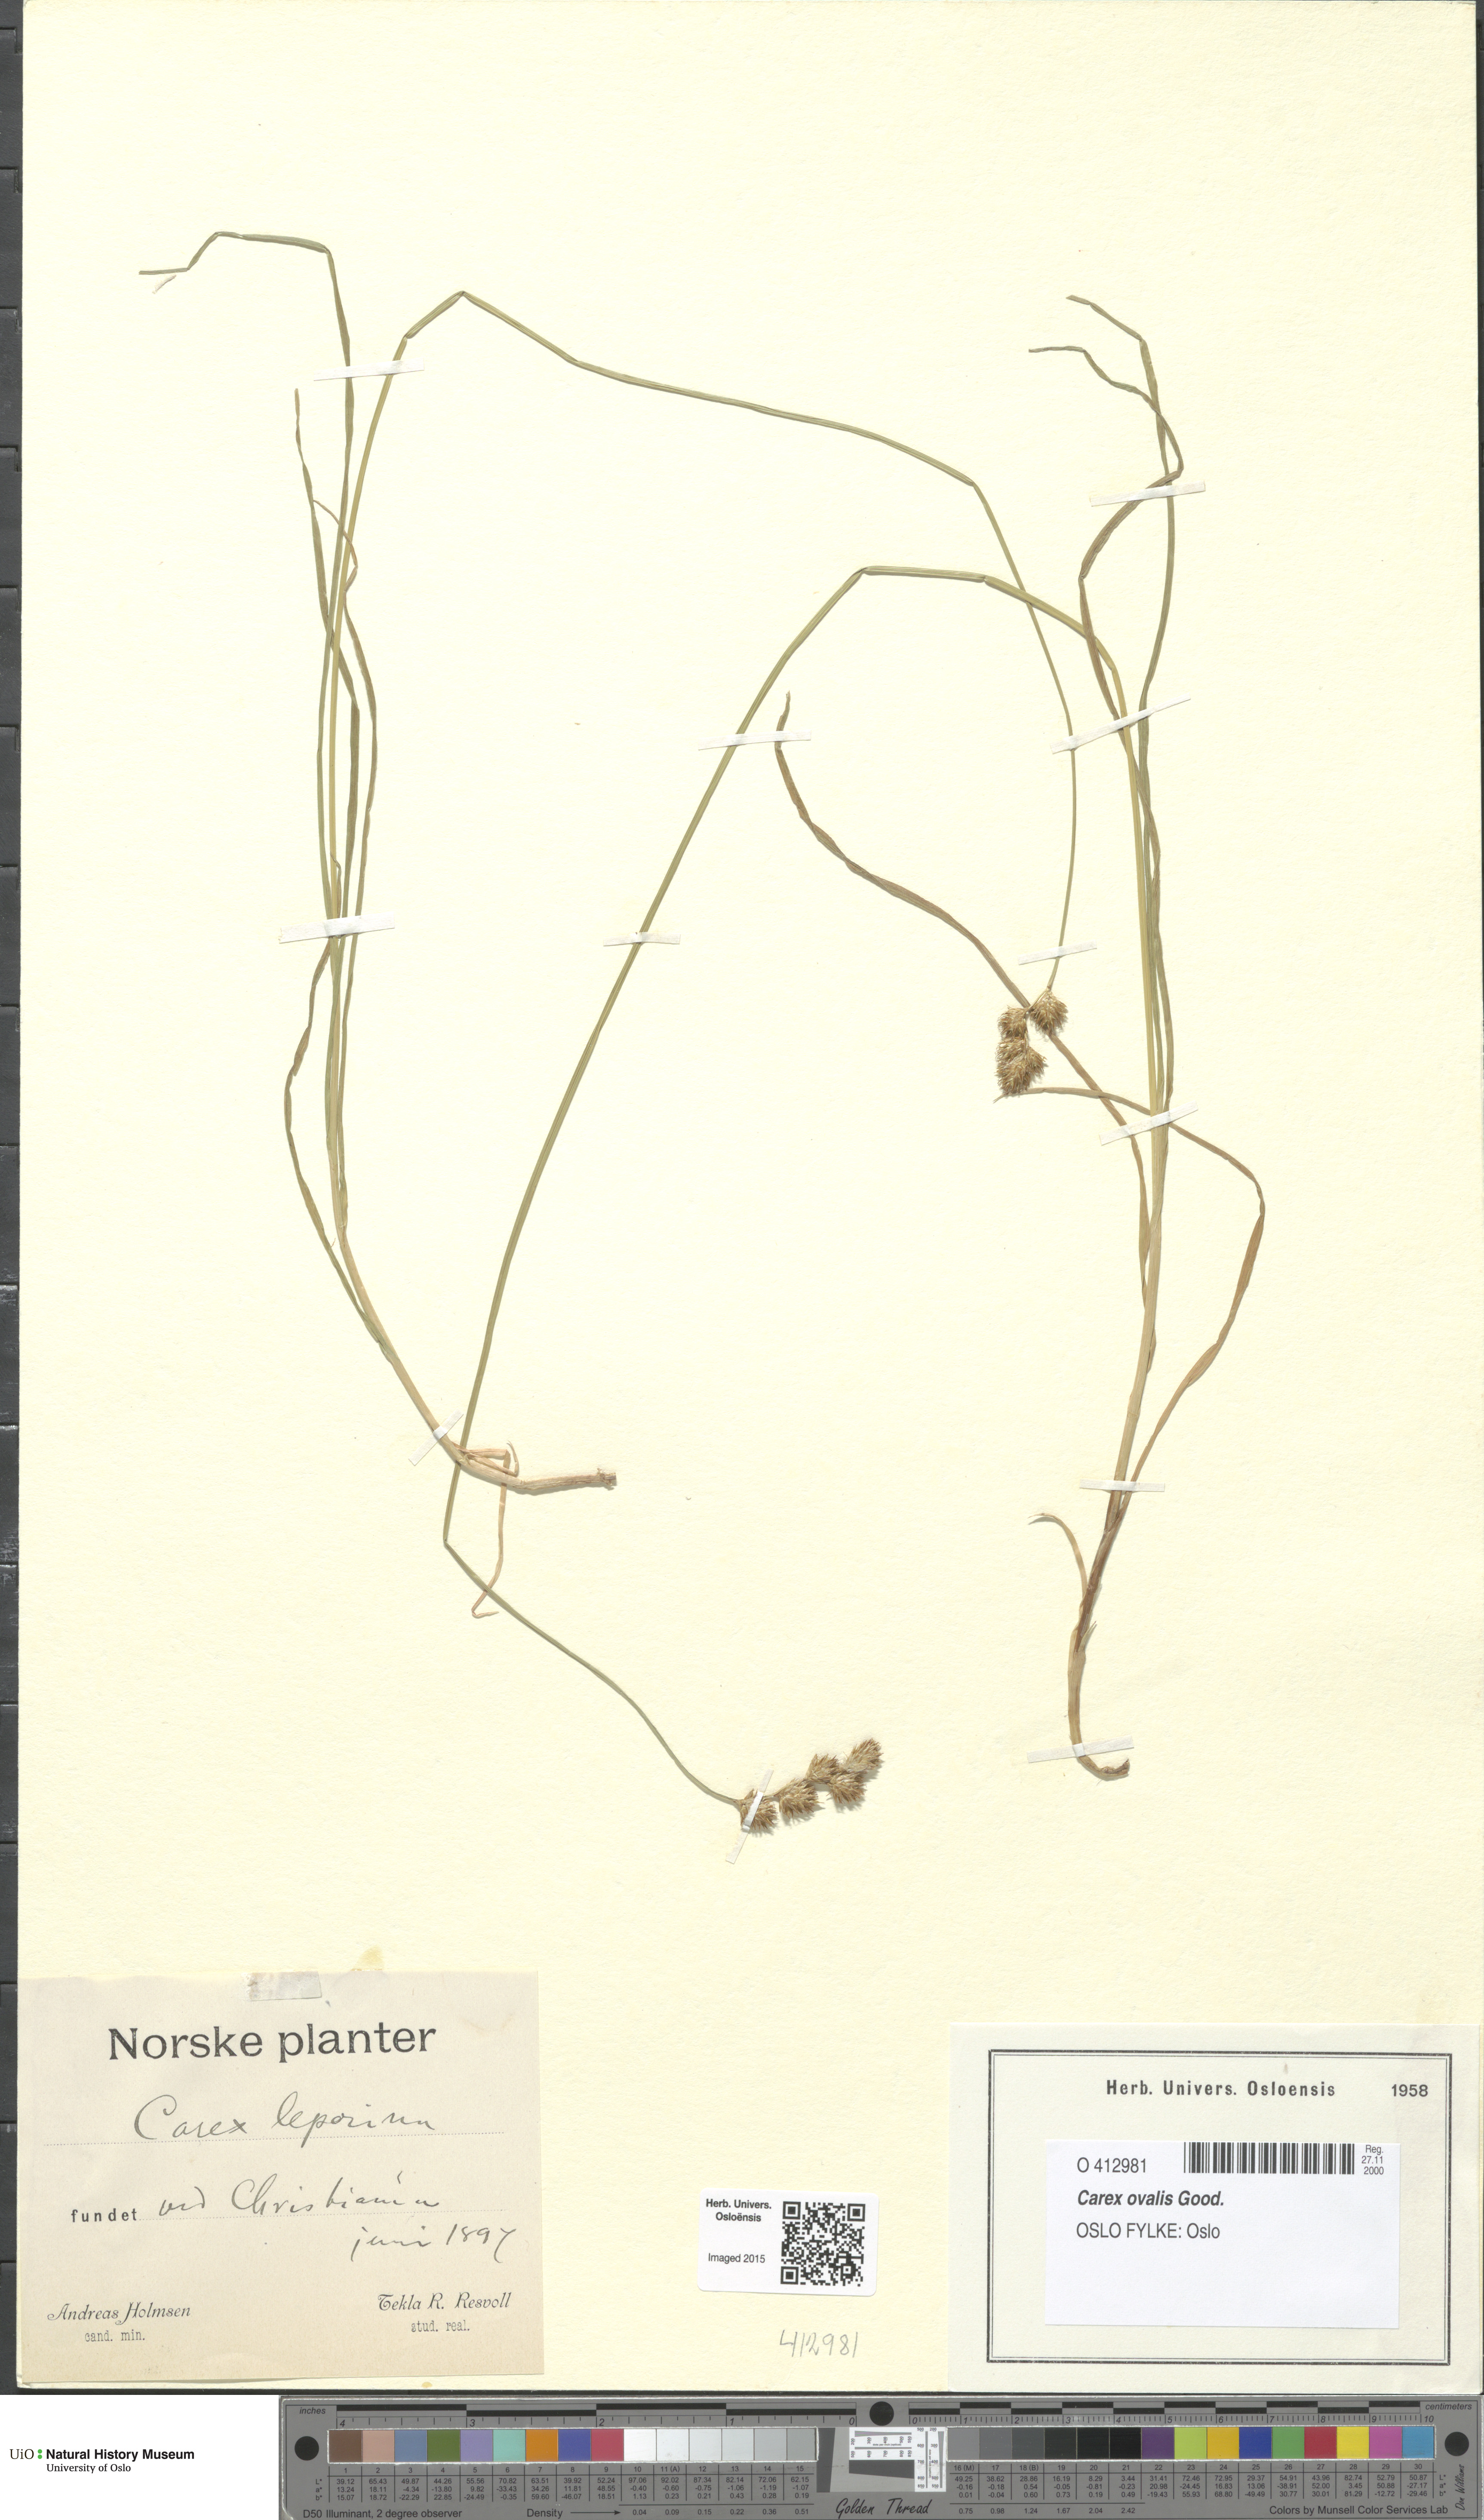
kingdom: Plantae
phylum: Tracheophyta
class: Liliopsida
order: Poales
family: Cyperaceae
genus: Carex
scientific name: Carex leporina
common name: Oval sedge
